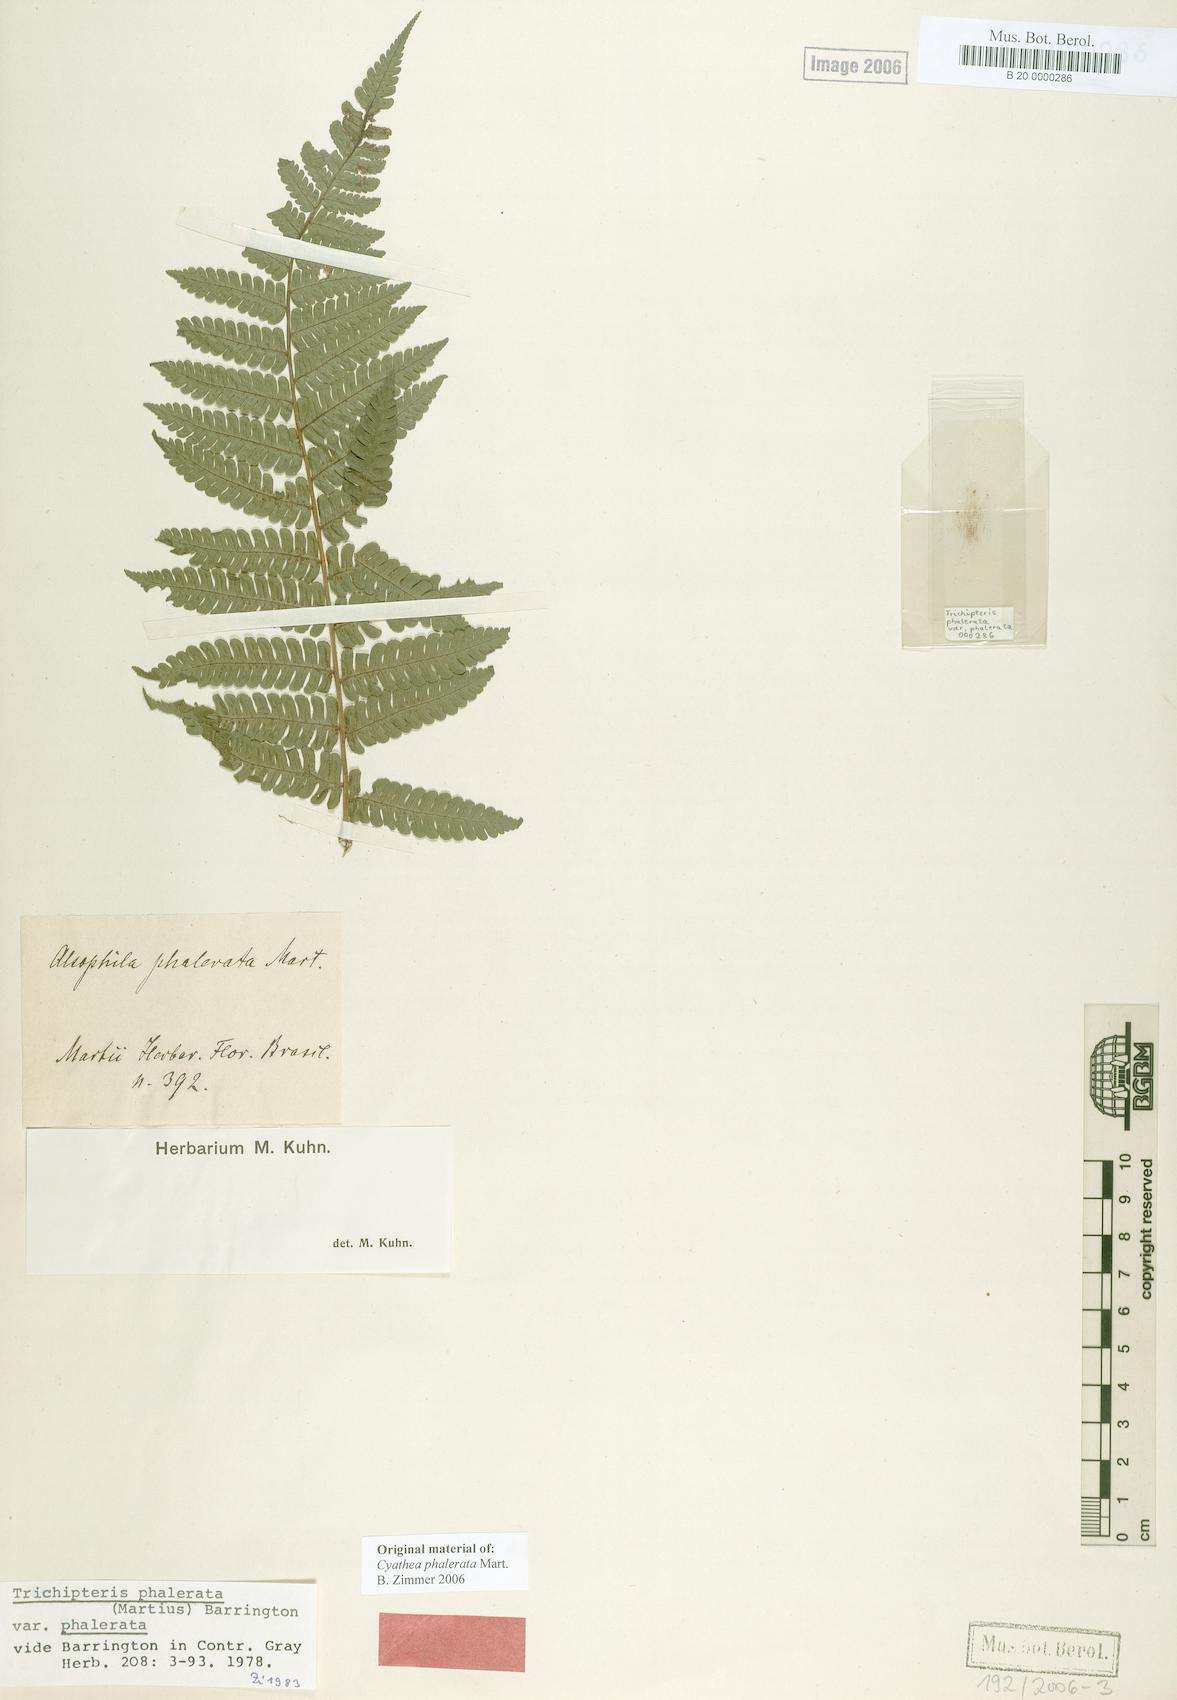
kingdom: Plantae
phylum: Tracheophyta
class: Polypodiopsida
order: Cyatheales
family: Cyatheaceae
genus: Cyathea
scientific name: Cyathea phalerata
